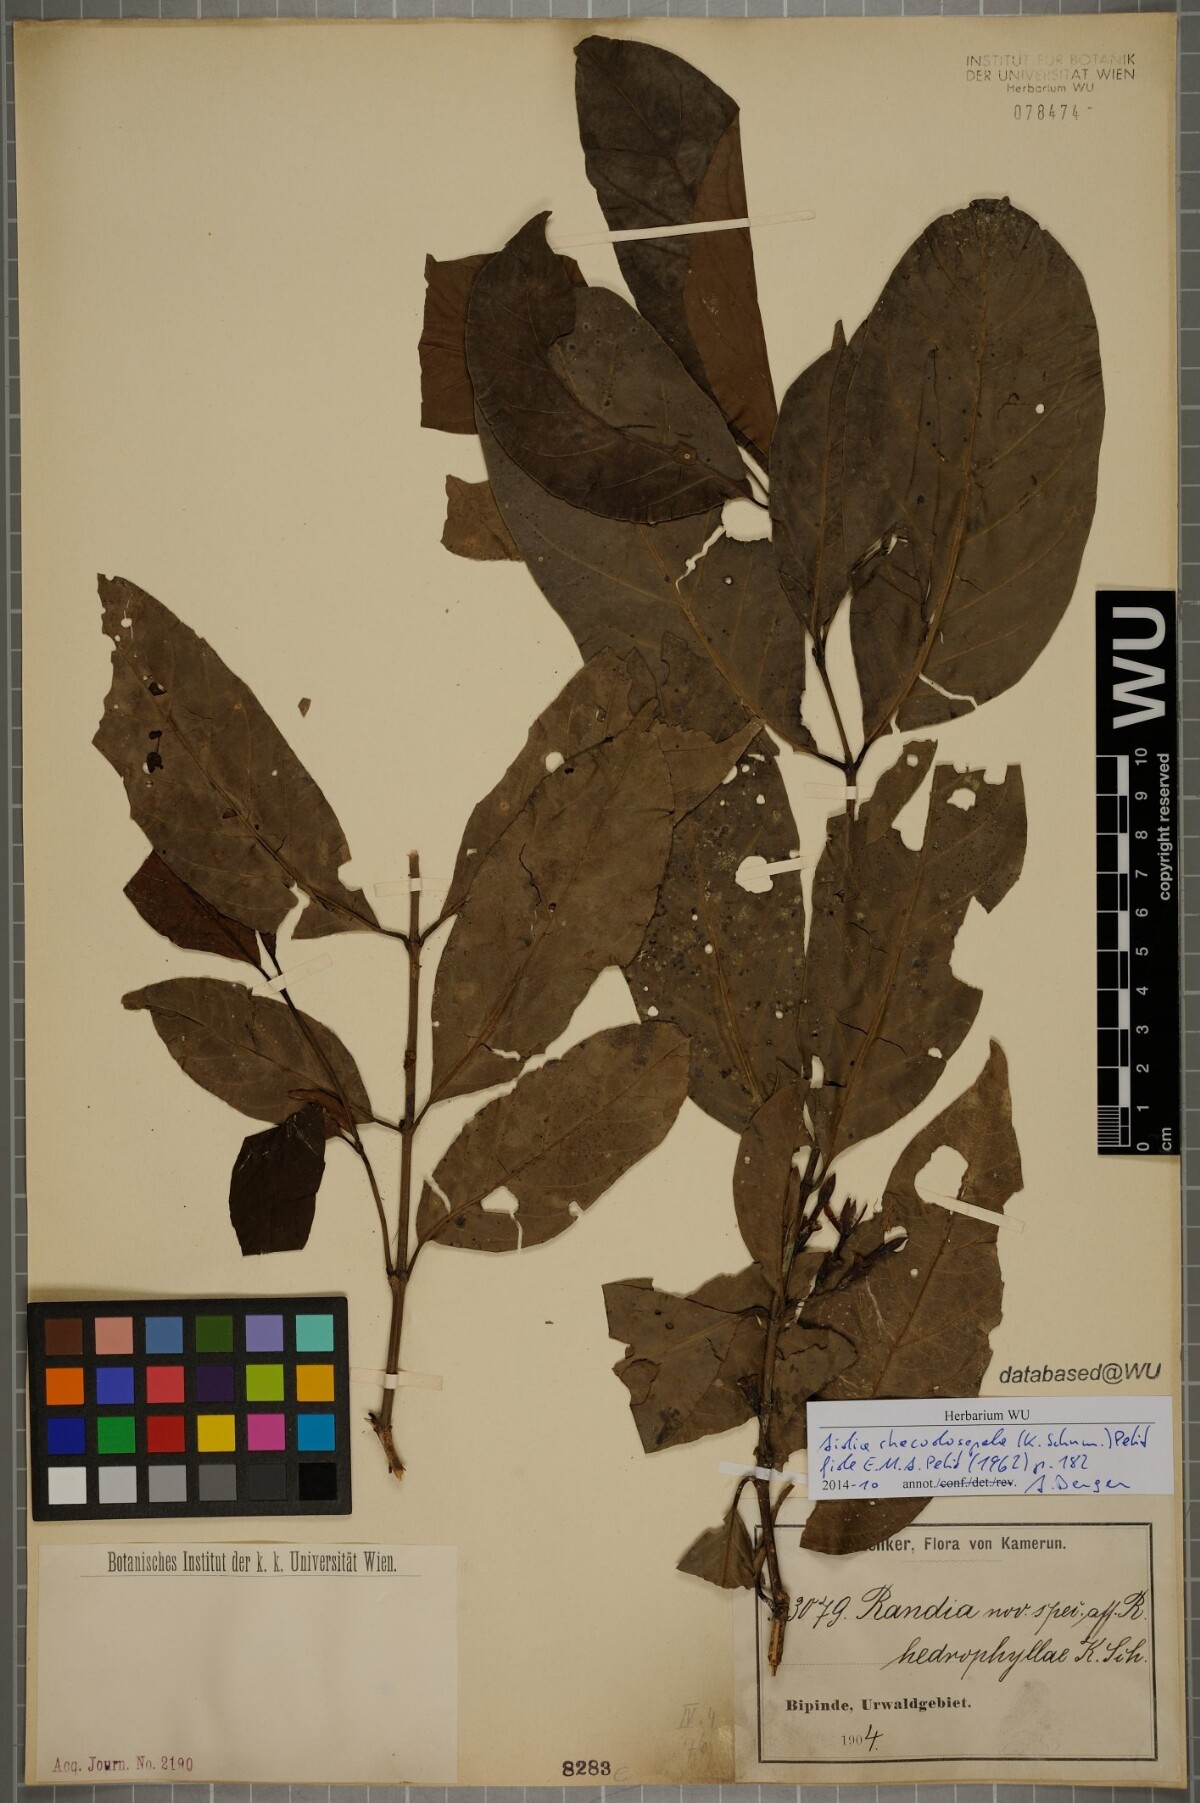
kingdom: Plantae
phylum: Tracheophyta
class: Magnoliopsida
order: Gentianales
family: Rubiaceae
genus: Aidia
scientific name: Aidia rhacodosepala
